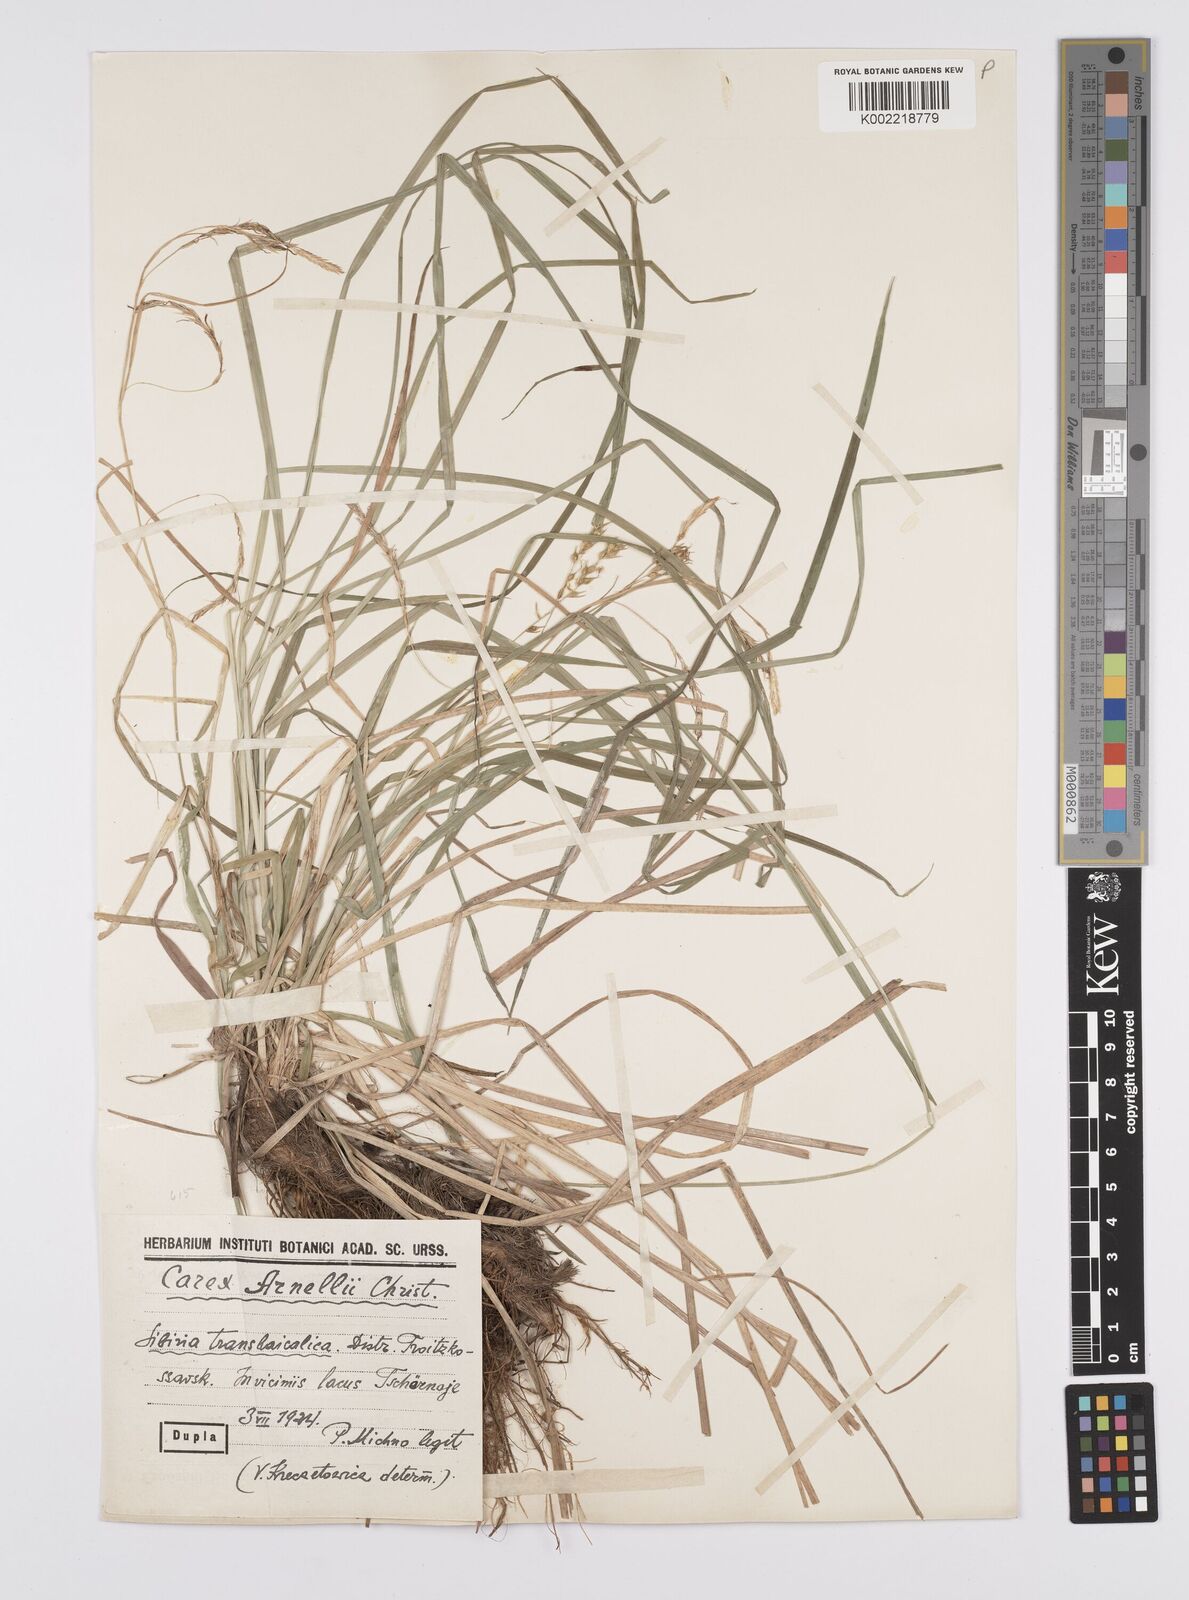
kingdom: Plantae
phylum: Tracheophyta
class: Liliopsida
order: Poales
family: Cyperaceae
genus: Carex
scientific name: Carex arnellii
